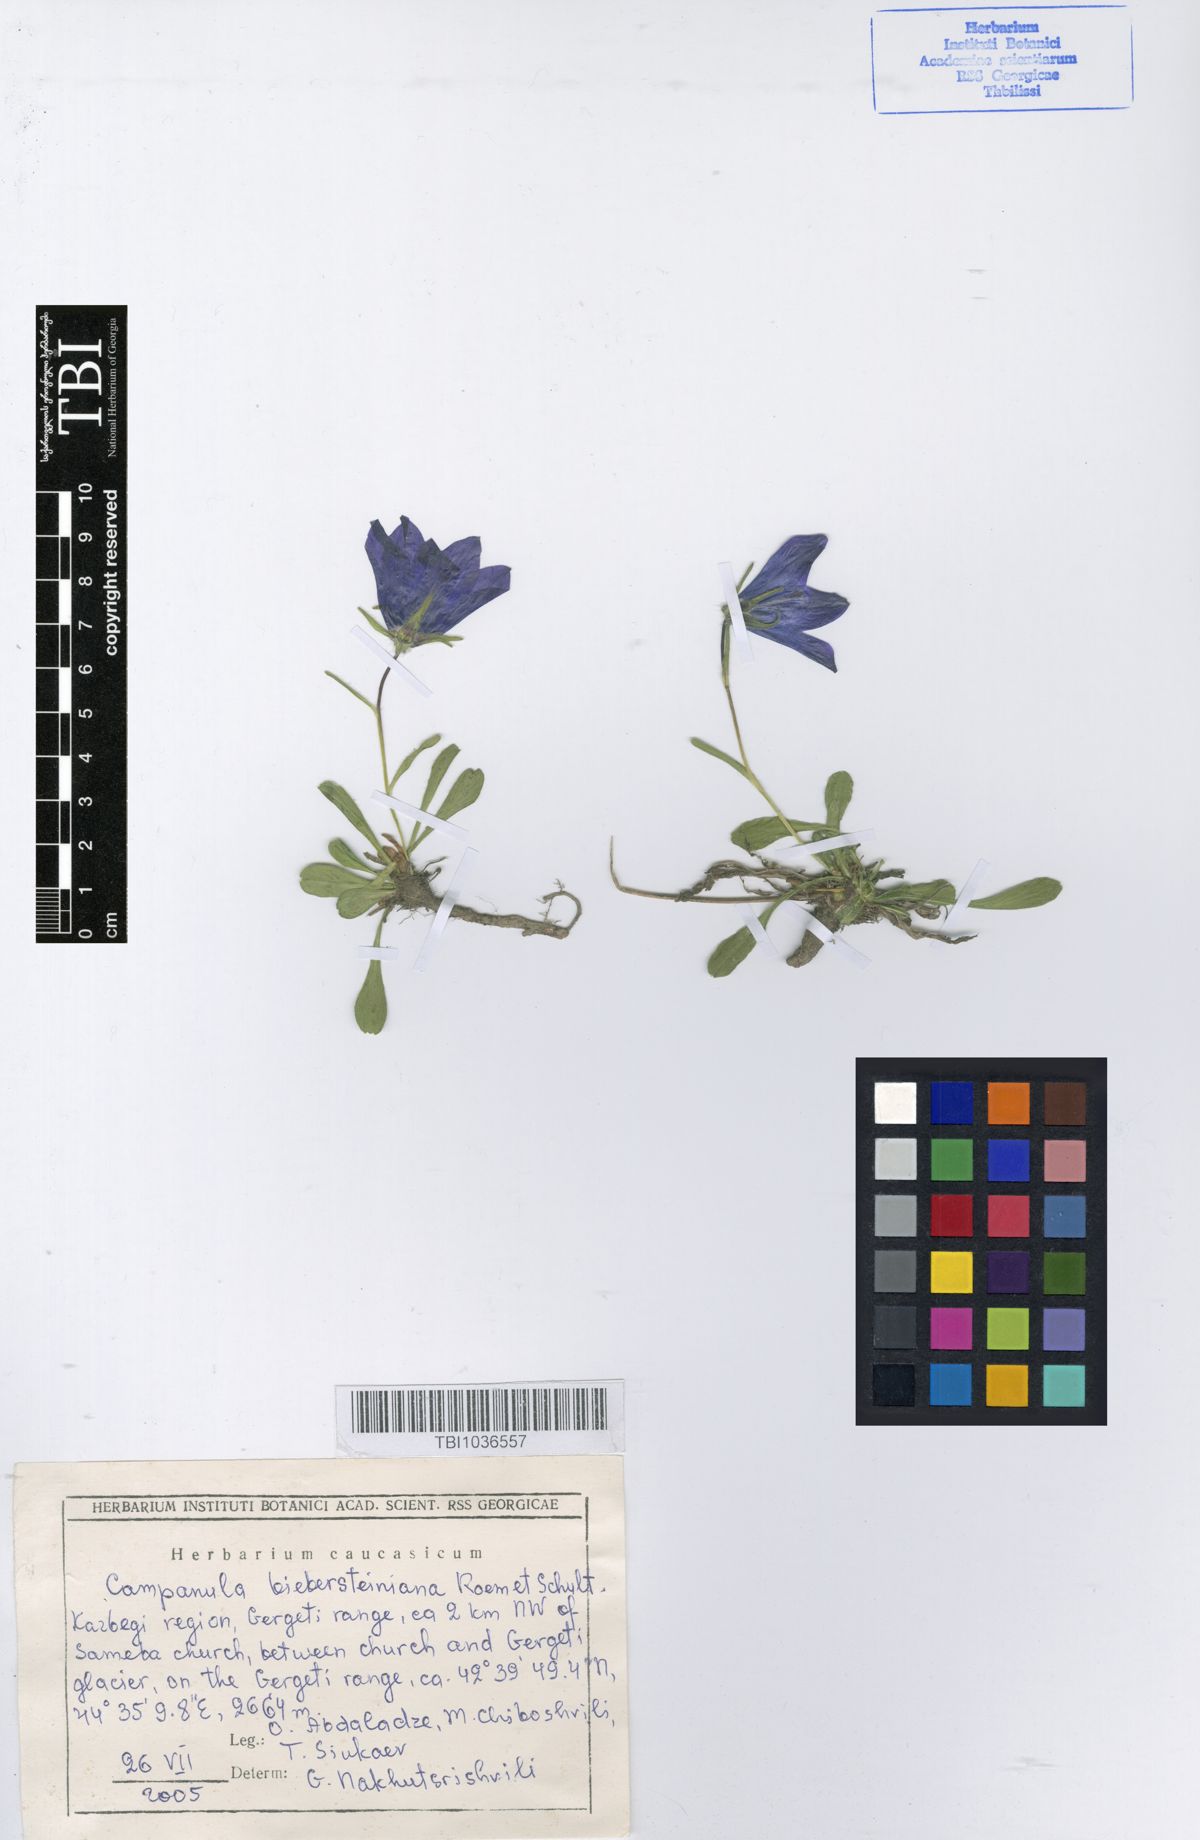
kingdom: Plantae
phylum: Tracheophyta
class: Magnoliopsida
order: Asterales
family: Campanulaceae
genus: Campanula
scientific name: Campanula tridentata
